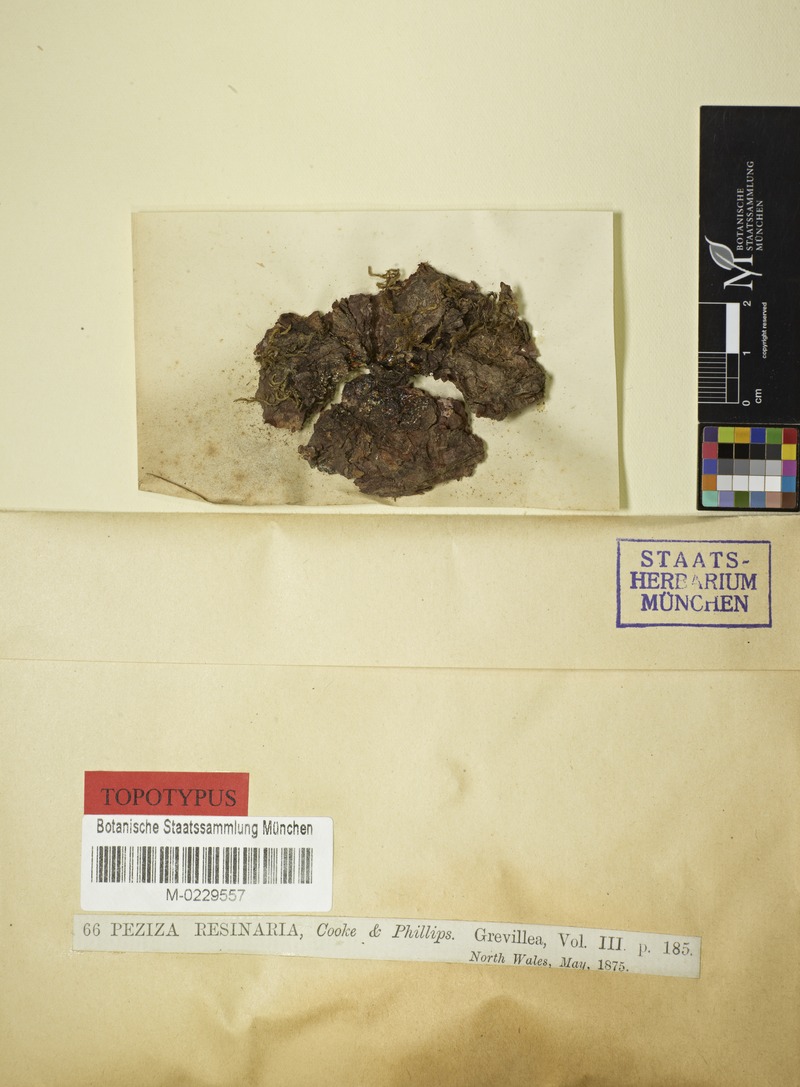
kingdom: Fungi
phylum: Ascomycota
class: Leotiomycetes
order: Helotiales
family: Lachnaceae
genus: Lachnellula
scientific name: Lachnellula resinaria
